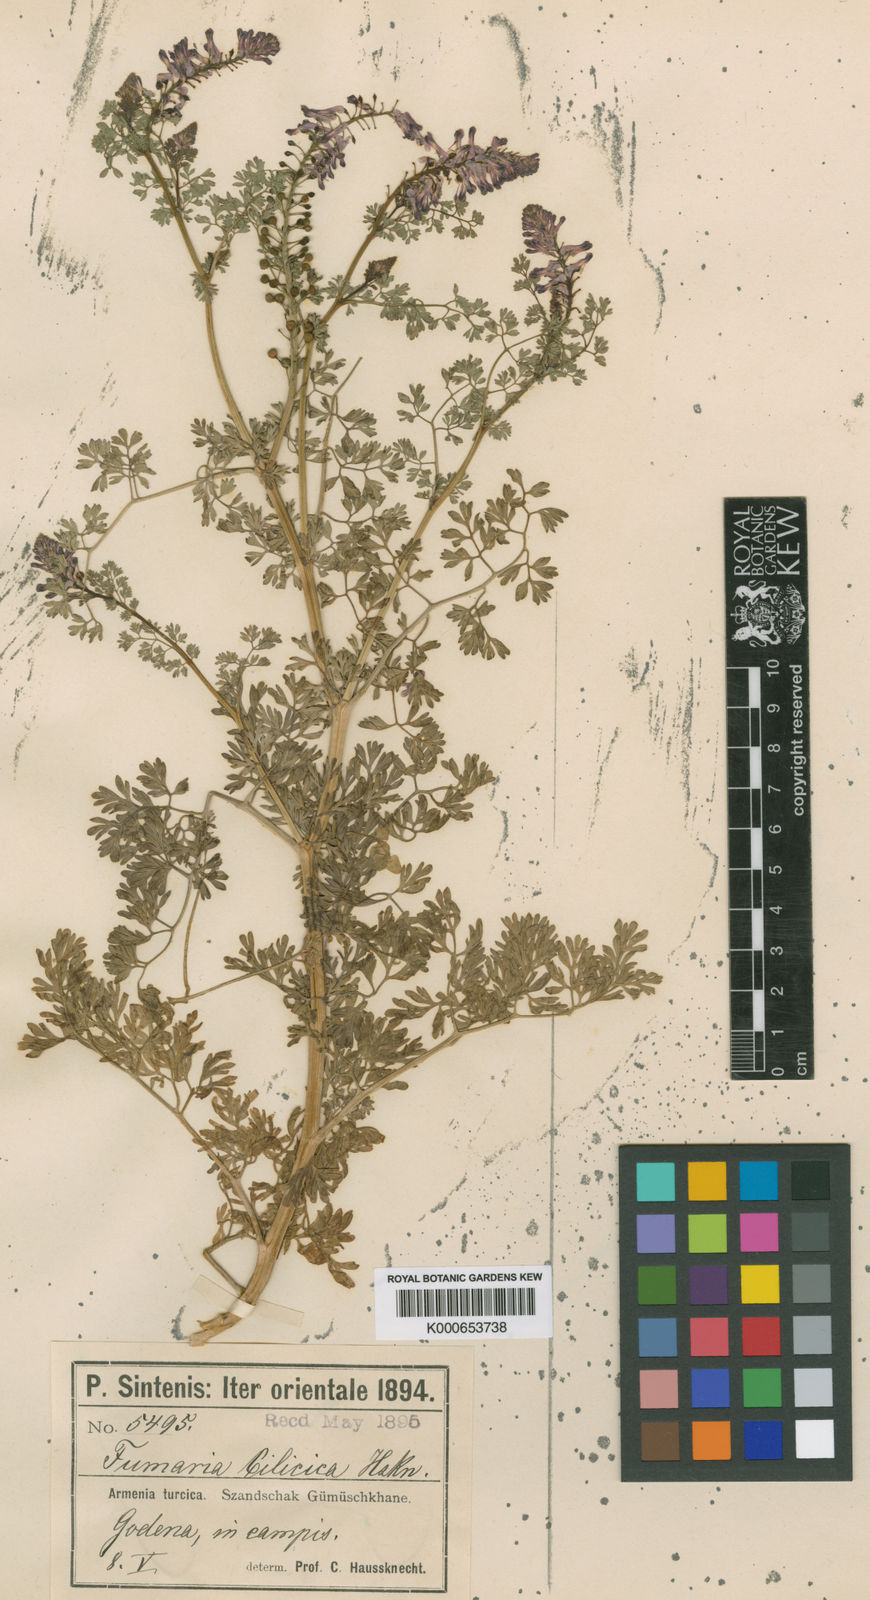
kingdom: Plantae
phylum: Tracheophyta
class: Magnoliopsida
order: Ranunculales
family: Papaveraceae
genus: Fumaria
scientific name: Fumaria cilicica
